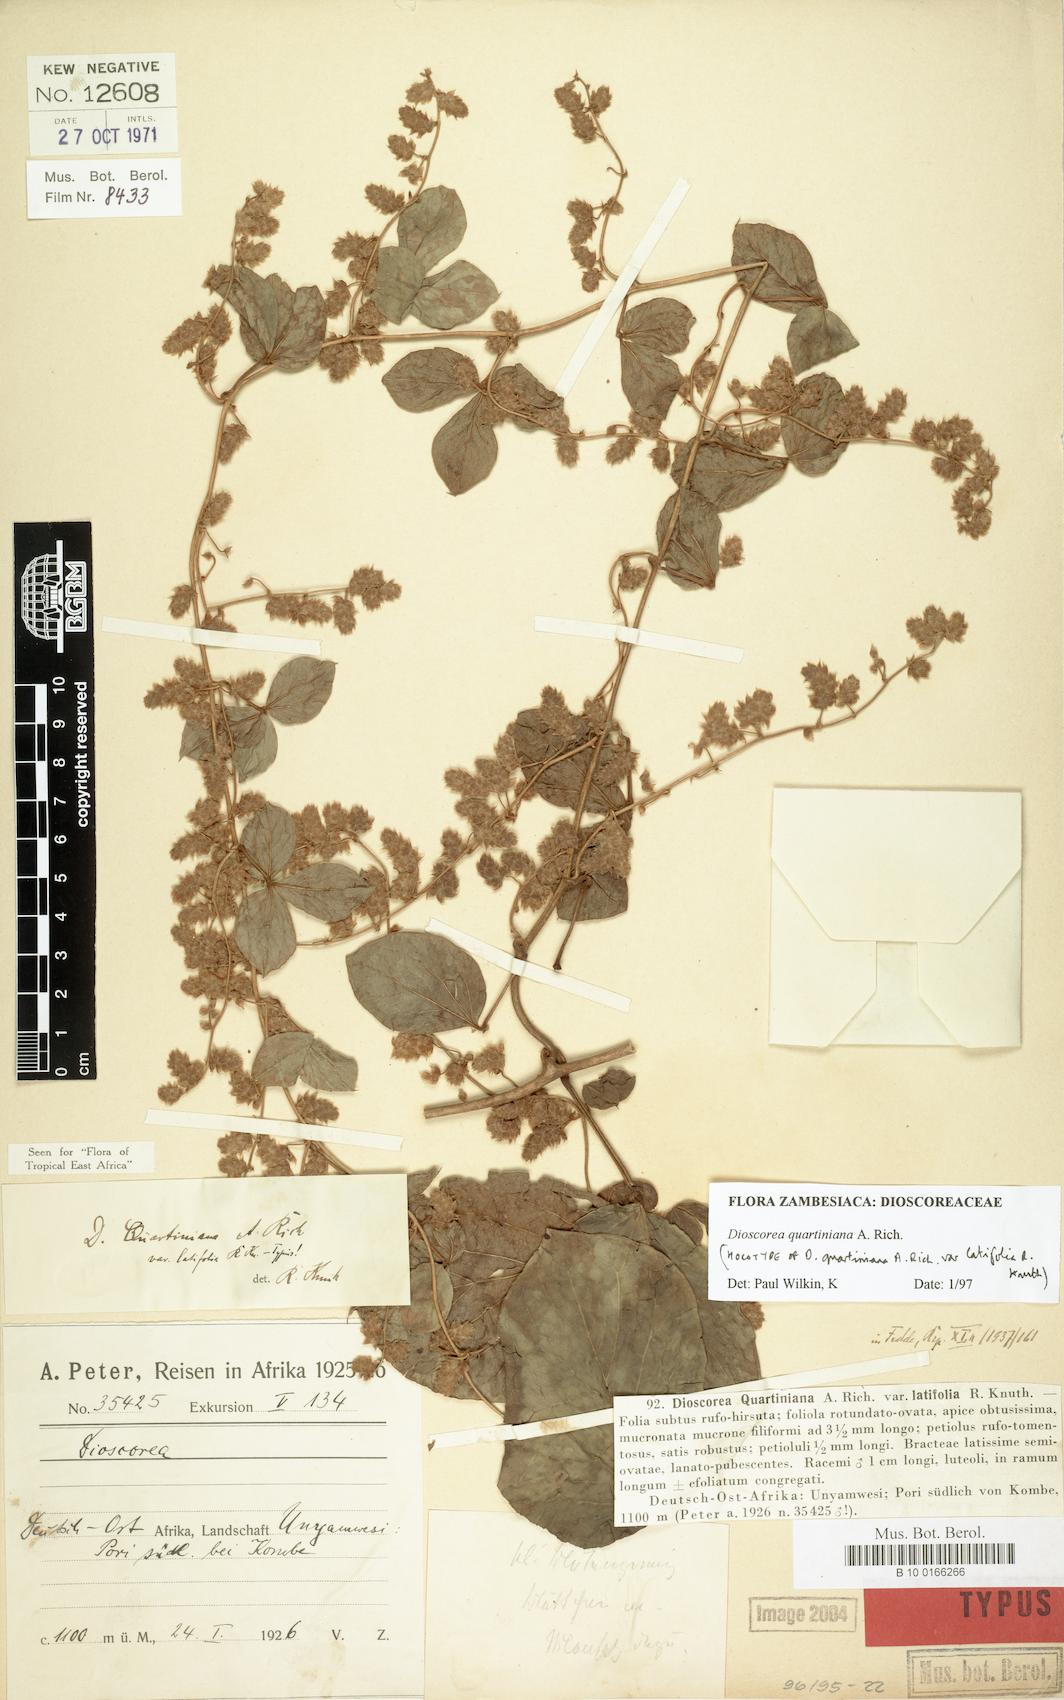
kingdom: Plantae
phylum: Tracheophyta
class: Liliopsida
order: Dioscoreales
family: Dioscoreaceae
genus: Dioscorea
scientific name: Dioscorea quartiniana
